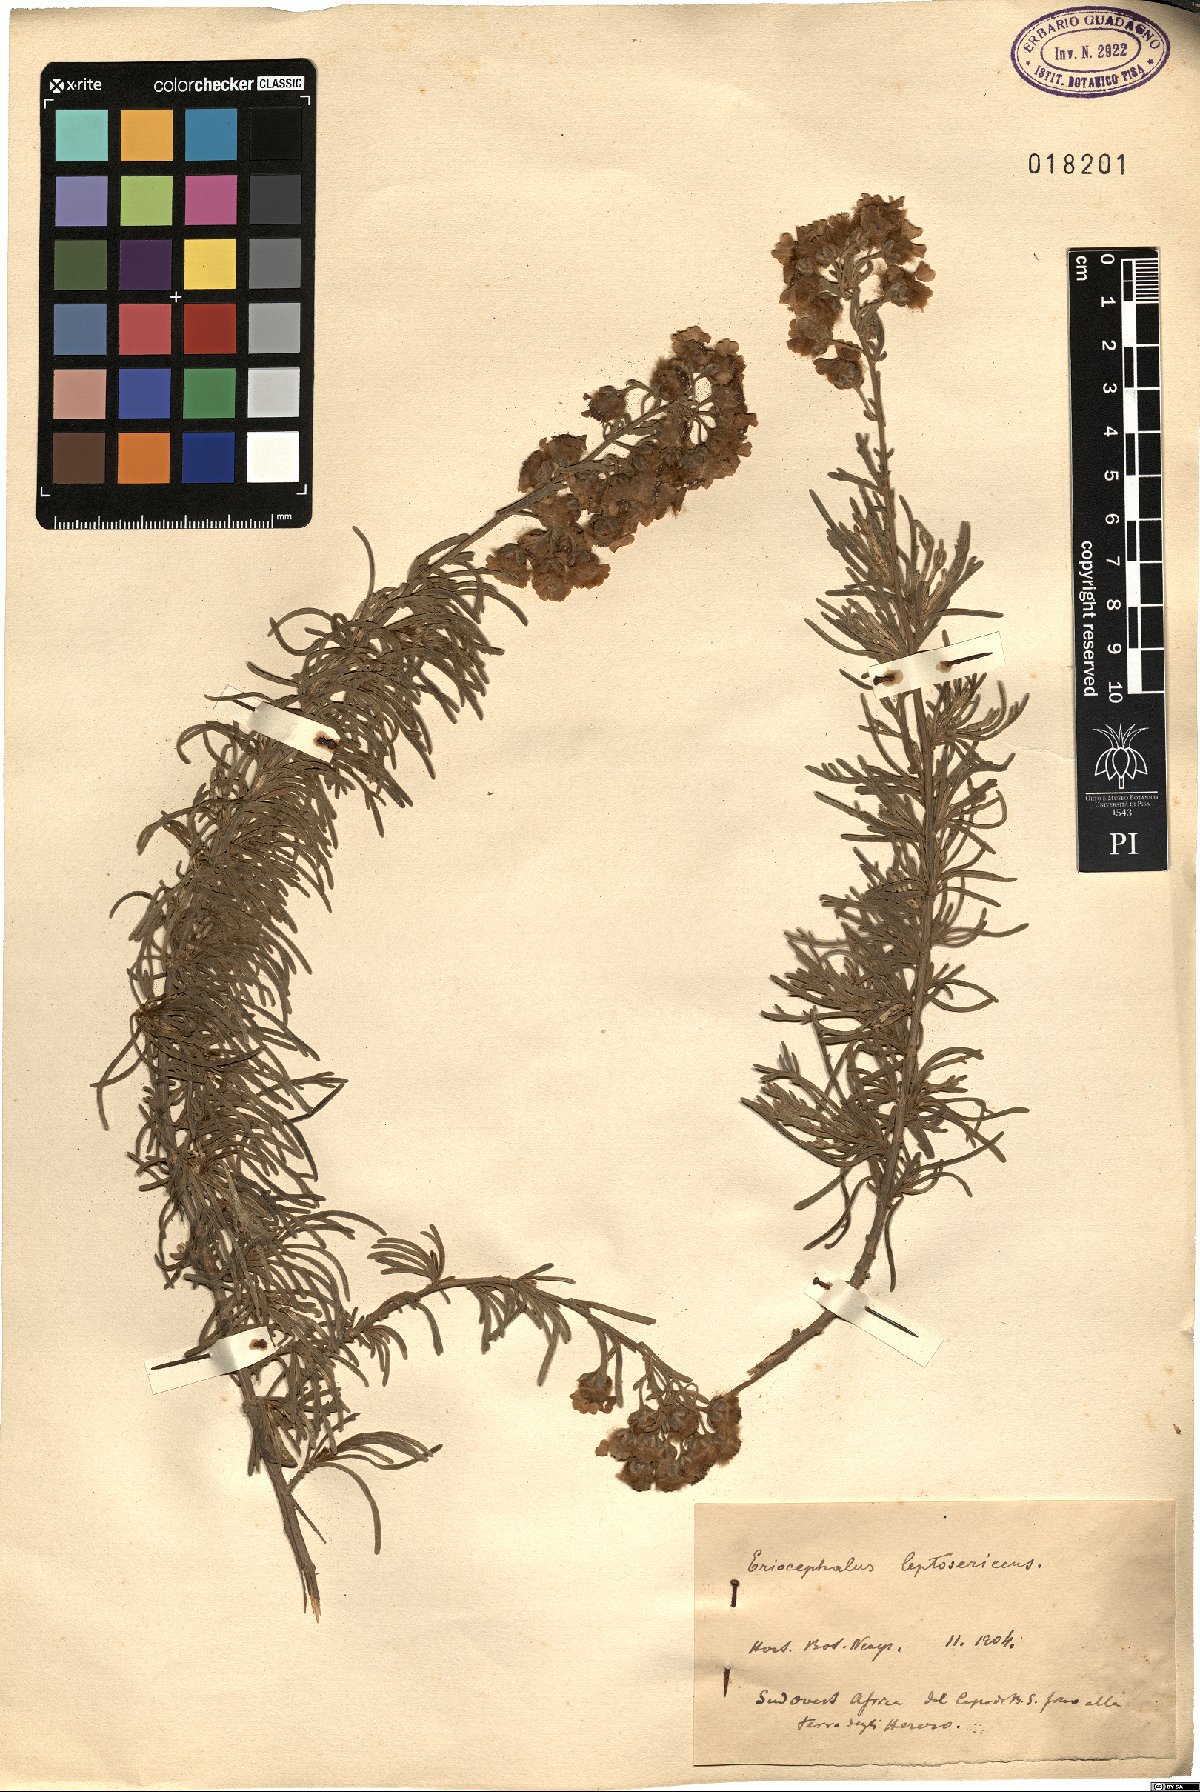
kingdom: Plantae
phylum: Tracheophyta
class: Magnoliopsida
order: Asterales
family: Asteraceae
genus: Eriocephalus
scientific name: Eriocephalus africanus
